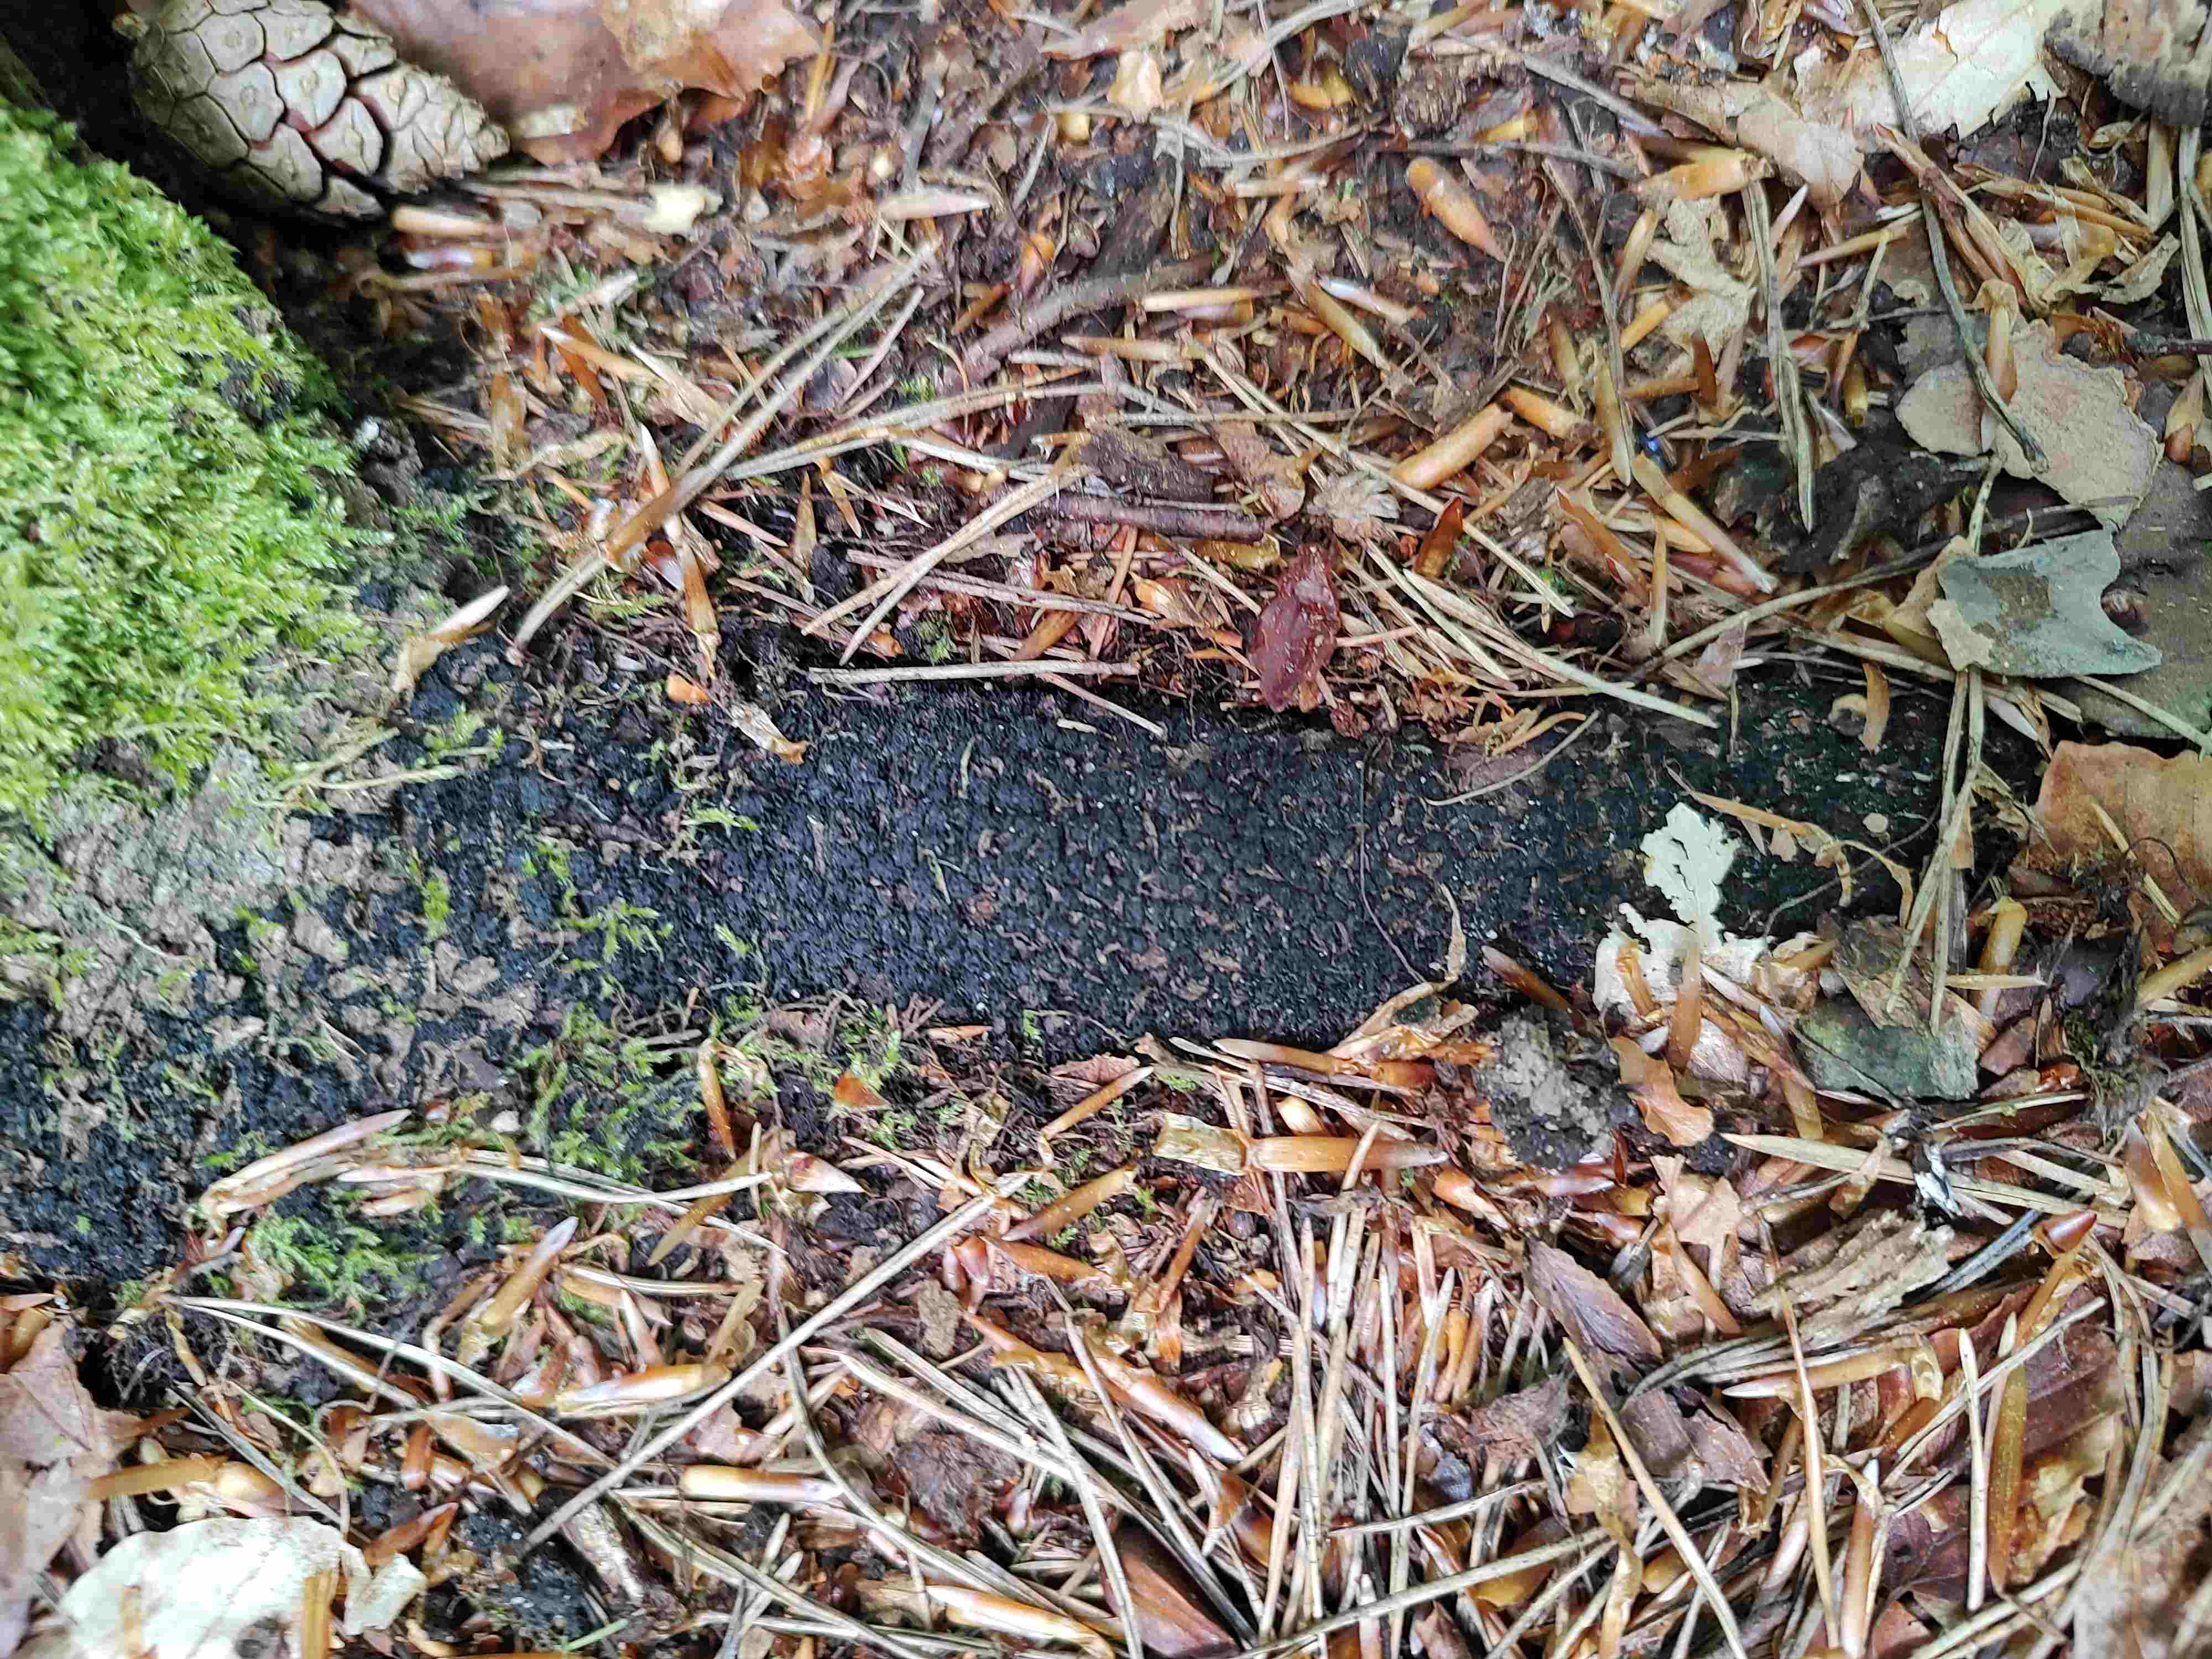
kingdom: Fungi
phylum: Ascomycota
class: Sordariomycetes
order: Xylariales
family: Melogrammataceae
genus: Melogramma
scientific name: Melogramma spiniferum
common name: bøgefod-kulhals
